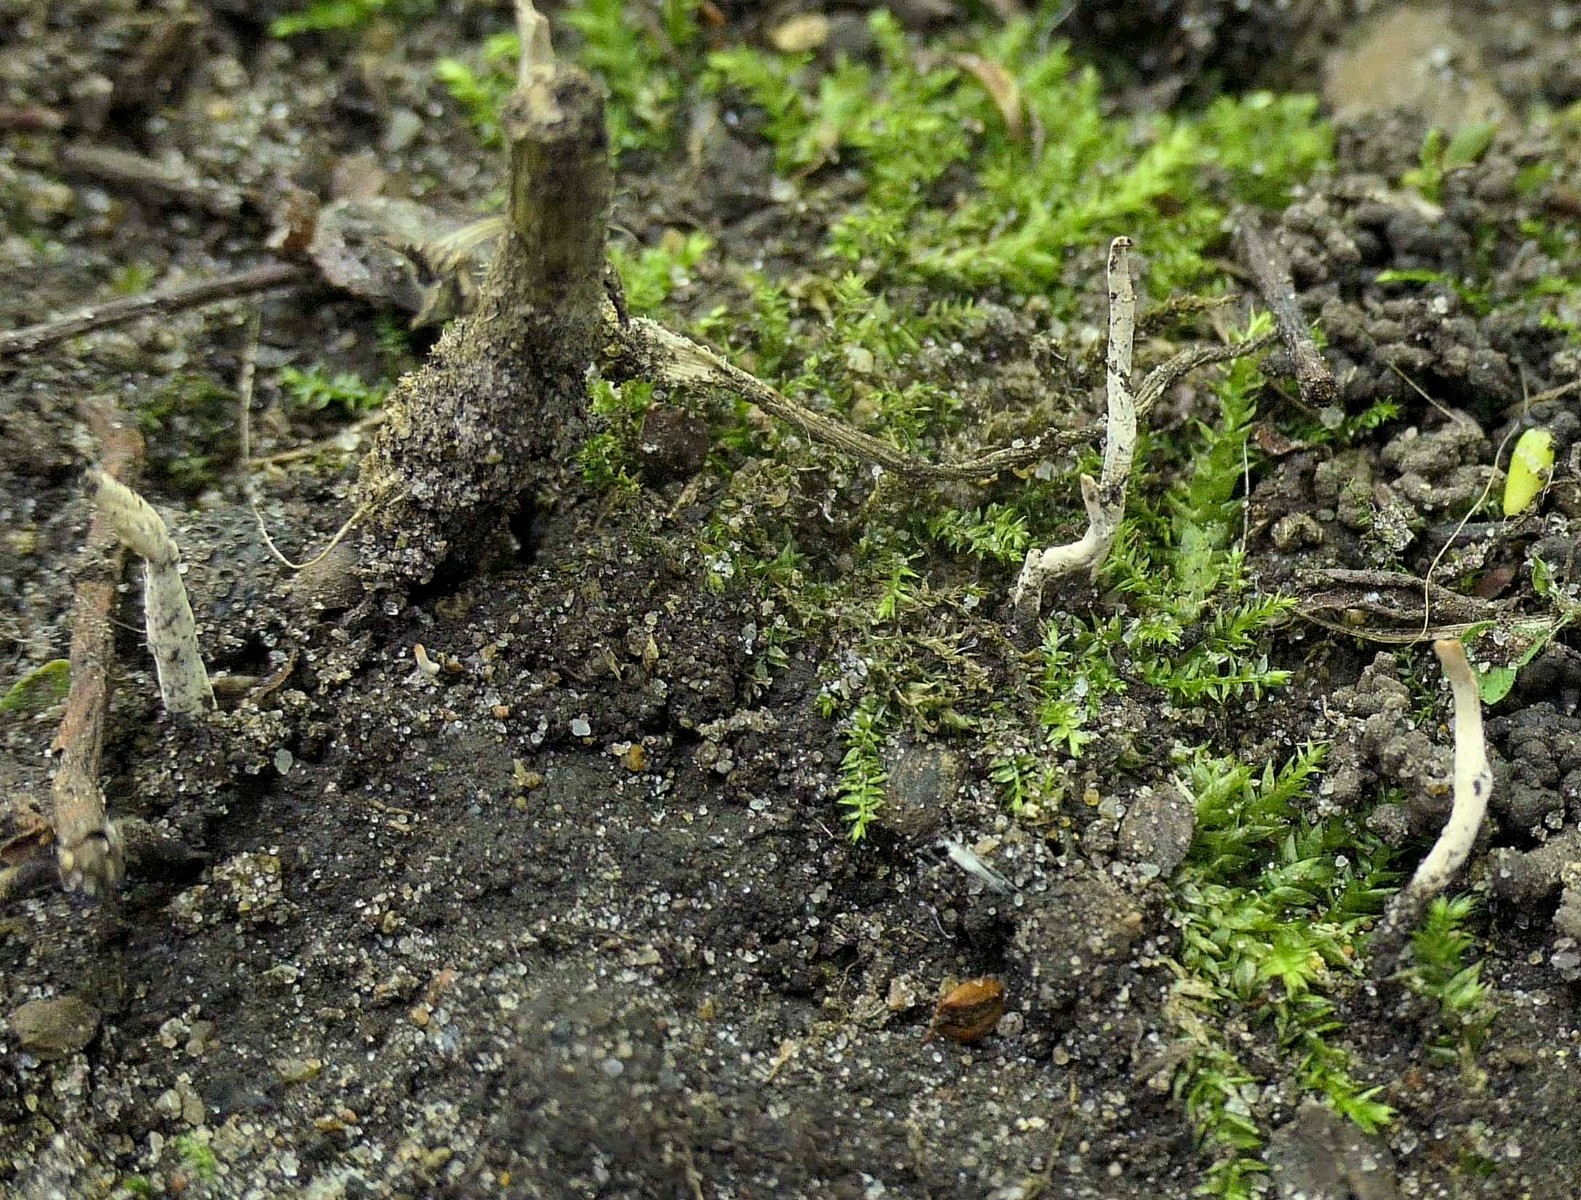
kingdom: Fungi
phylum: Ascomycota
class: Sordariomycetes
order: Xylariales
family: Xylariaceae
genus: Xylaria
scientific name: Xylaria oxyacanthae
